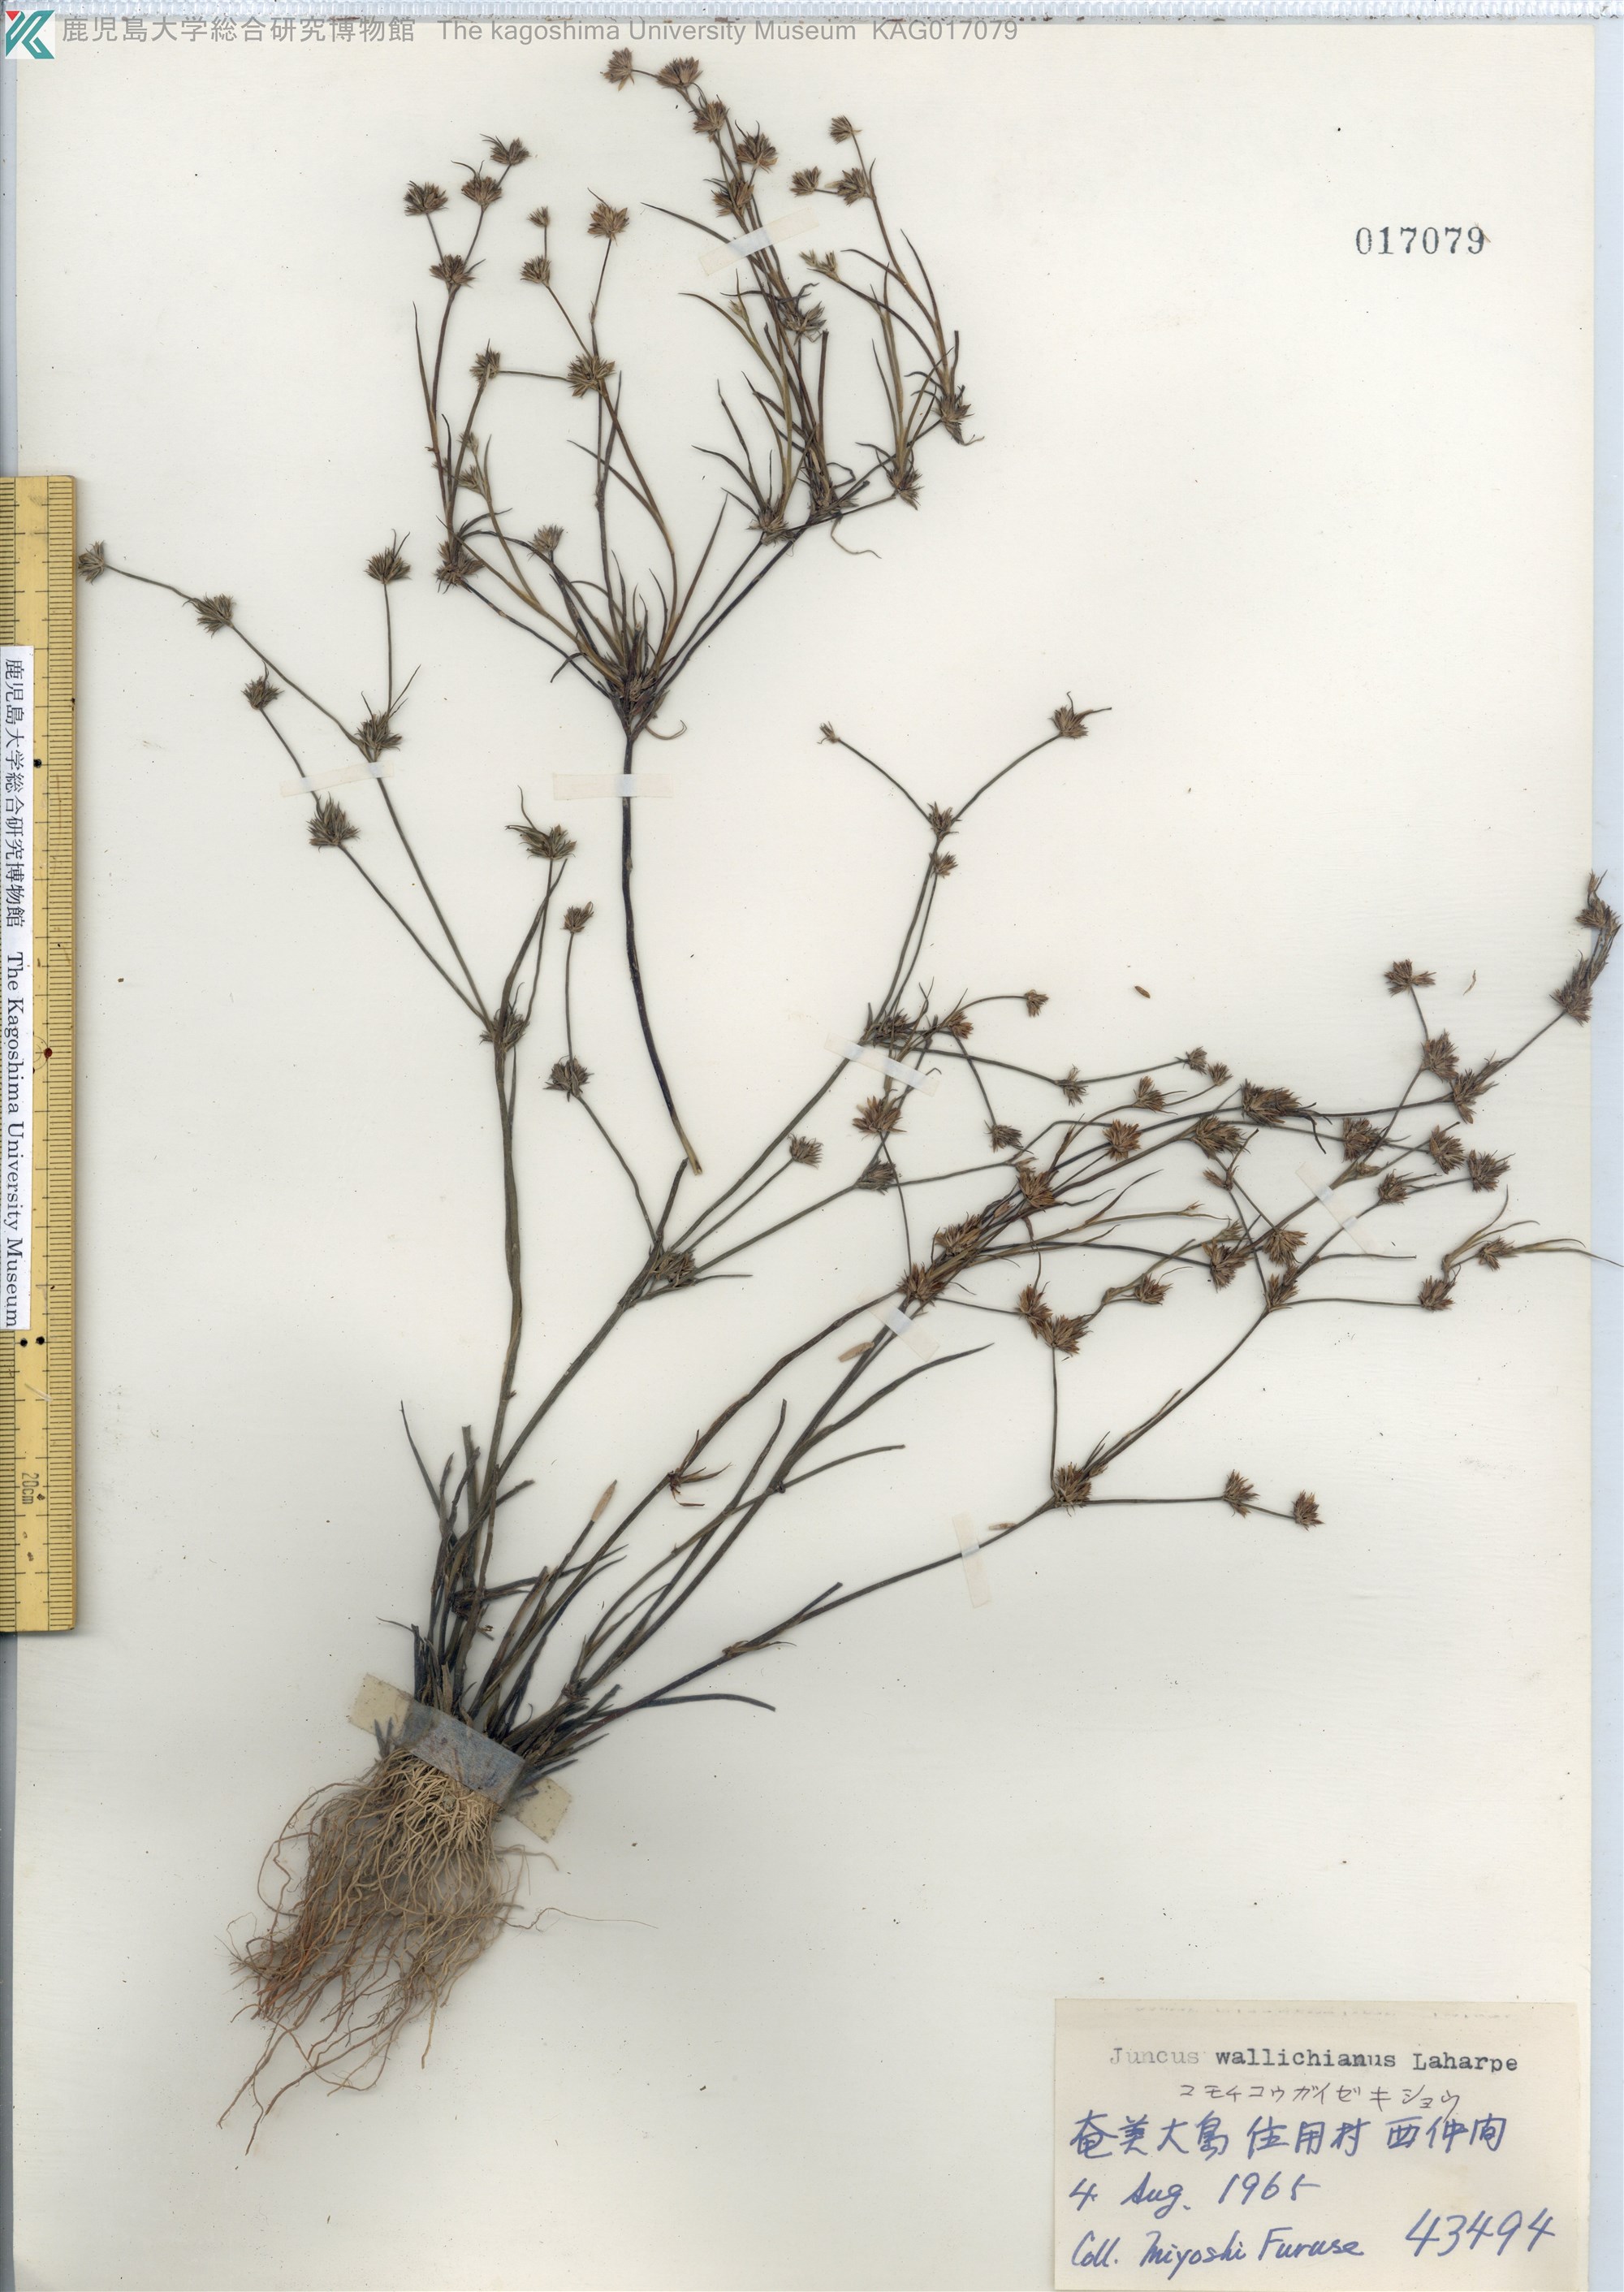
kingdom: Plantae
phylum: Tracheophyta
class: Liliopsida
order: Poales
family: Juncaceae
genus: Juncus
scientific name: Juncus prismatocarpus
